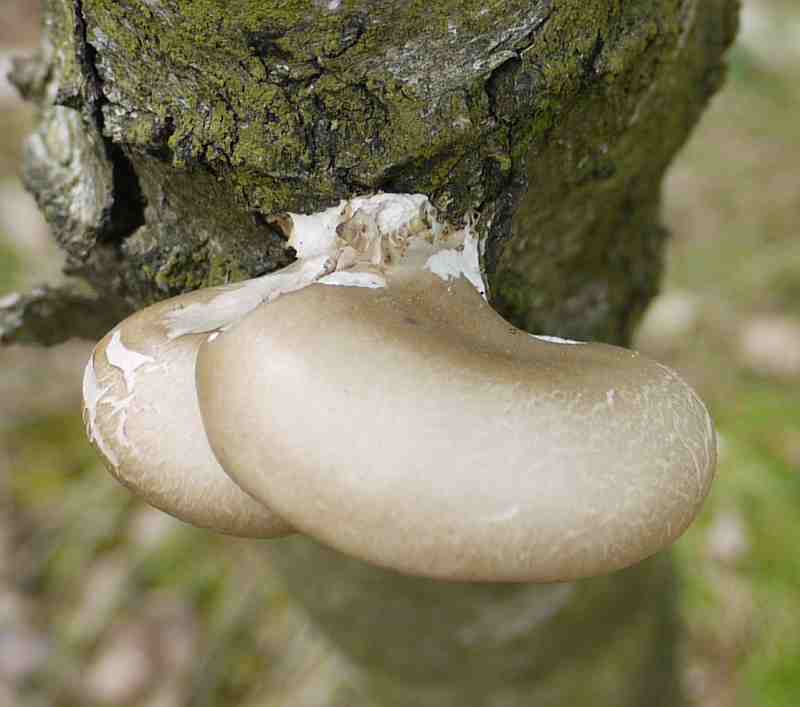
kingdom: Fungi
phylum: Basidiomycota
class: Agaricomycetes
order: Agaricales
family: Pleurotaceae
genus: Pleurotus
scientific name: Pleurotus ostreatus
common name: Oyster mushroom
